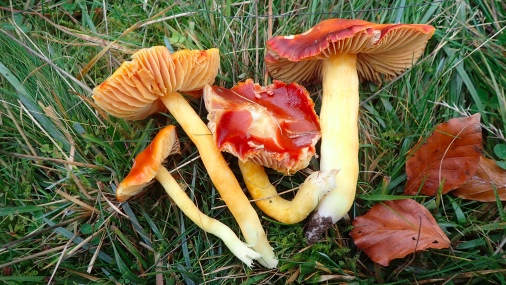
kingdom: Fungi
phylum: Basidiomycota
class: Agaricomycetes
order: Agaricales
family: Hygrophoraceae
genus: Hygrocybe
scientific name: Hygrocybe punicea
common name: skarlagen-vokshat
